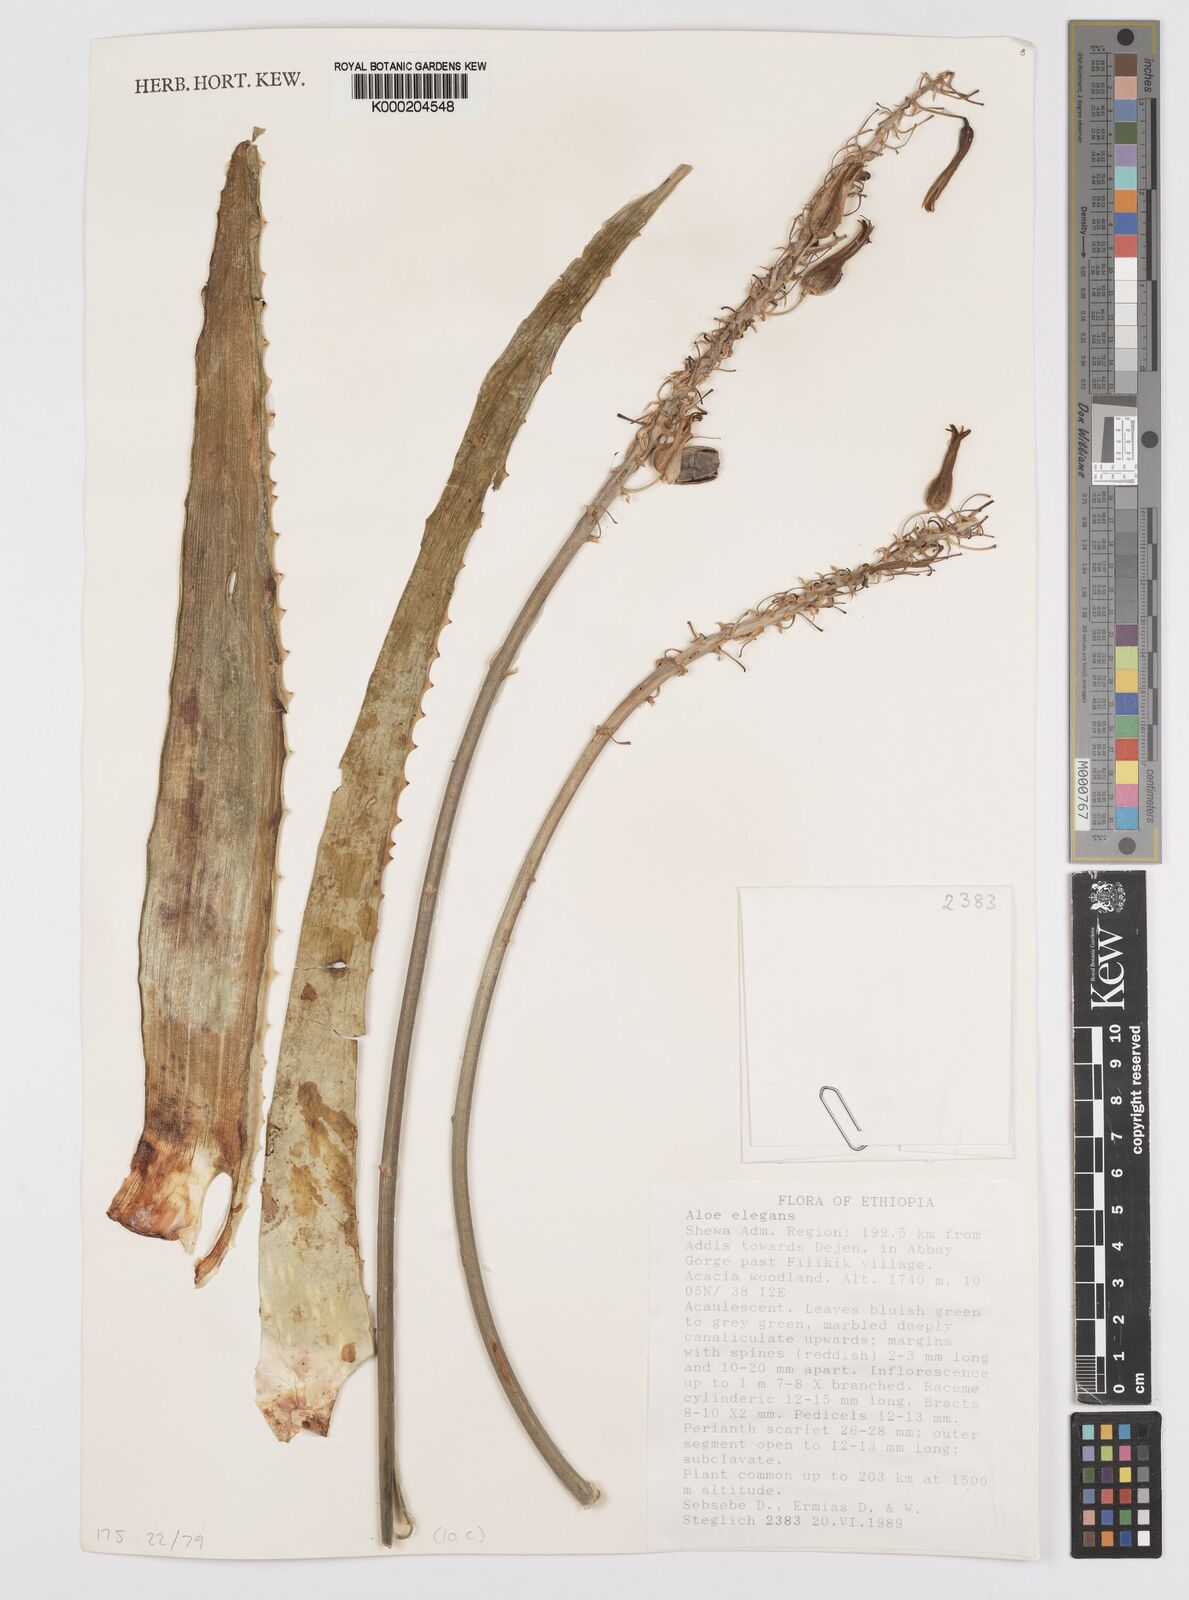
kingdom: Plantae
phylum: Tracheophyta
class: Liliopsida
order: Asparagales
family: Asphodelaceae
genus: Aloe
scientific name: Aloe elegans
